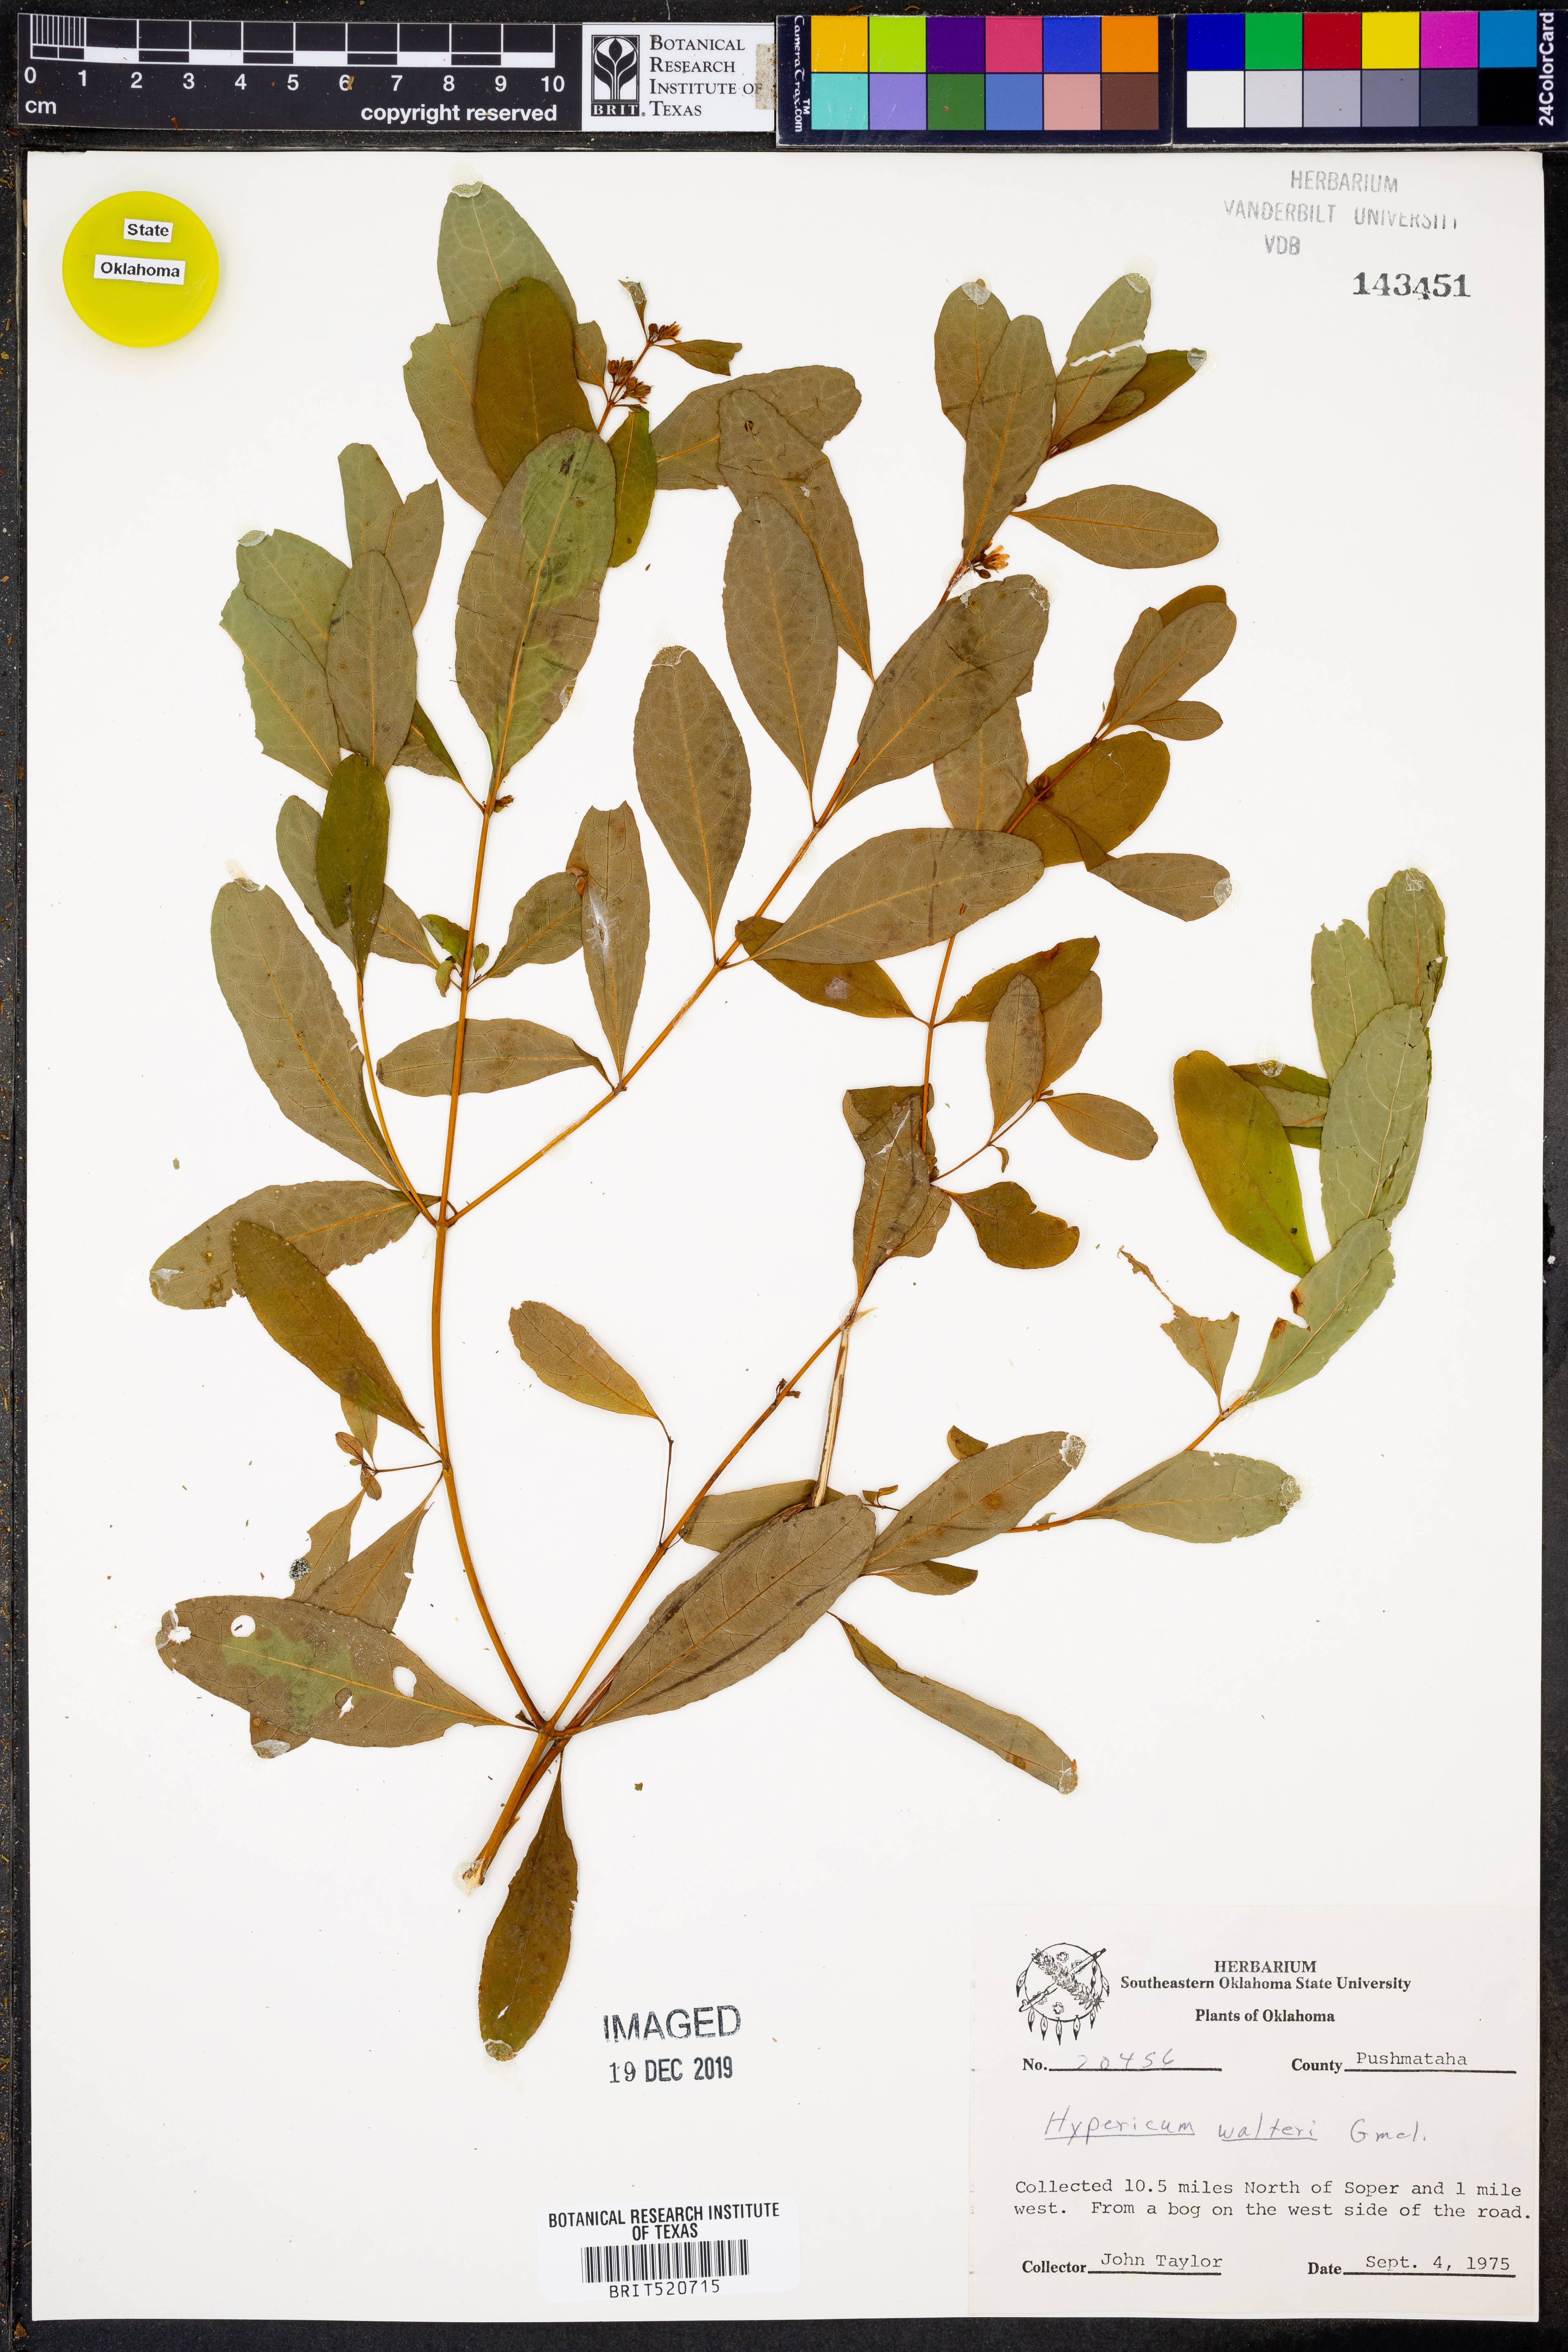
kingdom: Plantae
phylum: Tracheophyta
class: Magnoliopsida
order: Malpighiales
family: Hypericaceae
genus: Triadenum
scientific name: Triadenum walteri
